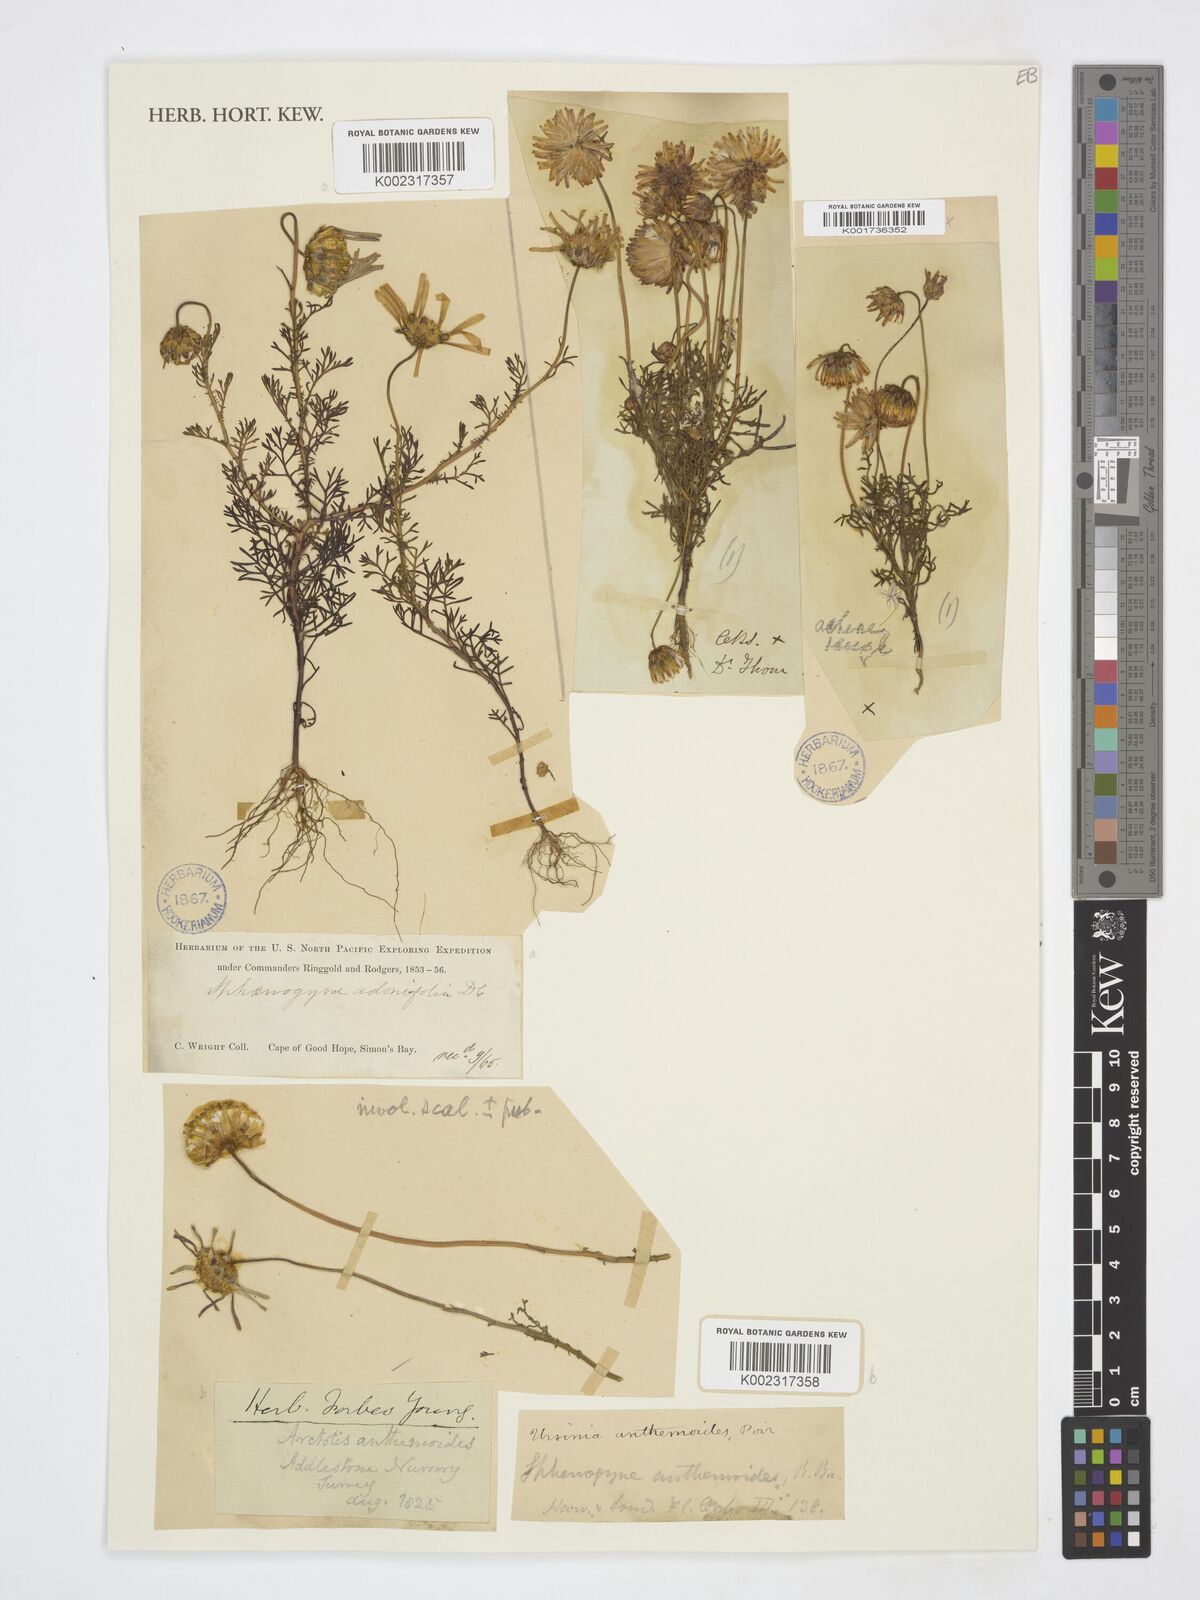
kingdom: Plantae
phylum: Tracheophyta
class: Magnoliopsida
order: Asterales
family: Asteraceae
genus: Ursinia
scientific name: Ursinia anthemoides
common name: Ursinia
